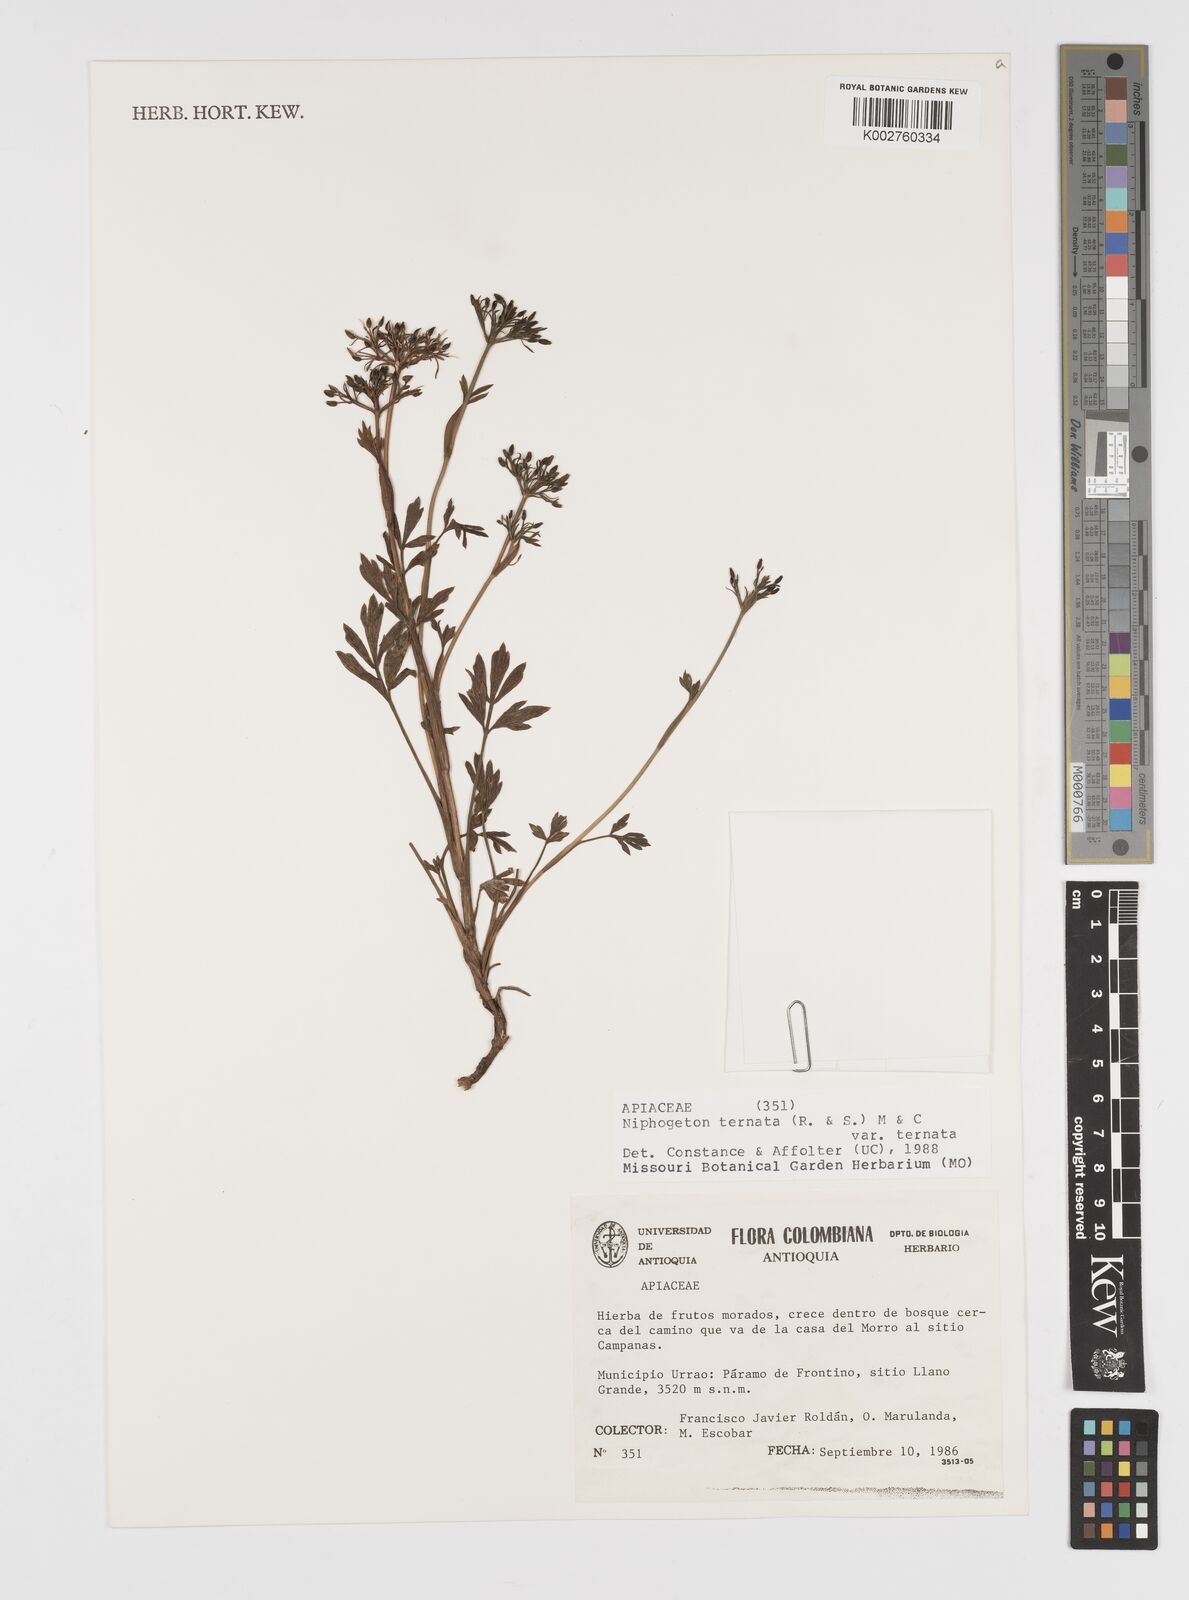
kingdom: Plantae
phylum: Tracheophyta
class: Magnoliopsida
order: Apiales
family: Apiaceae
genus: Niphogeton
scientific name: Niphogeton ternata
